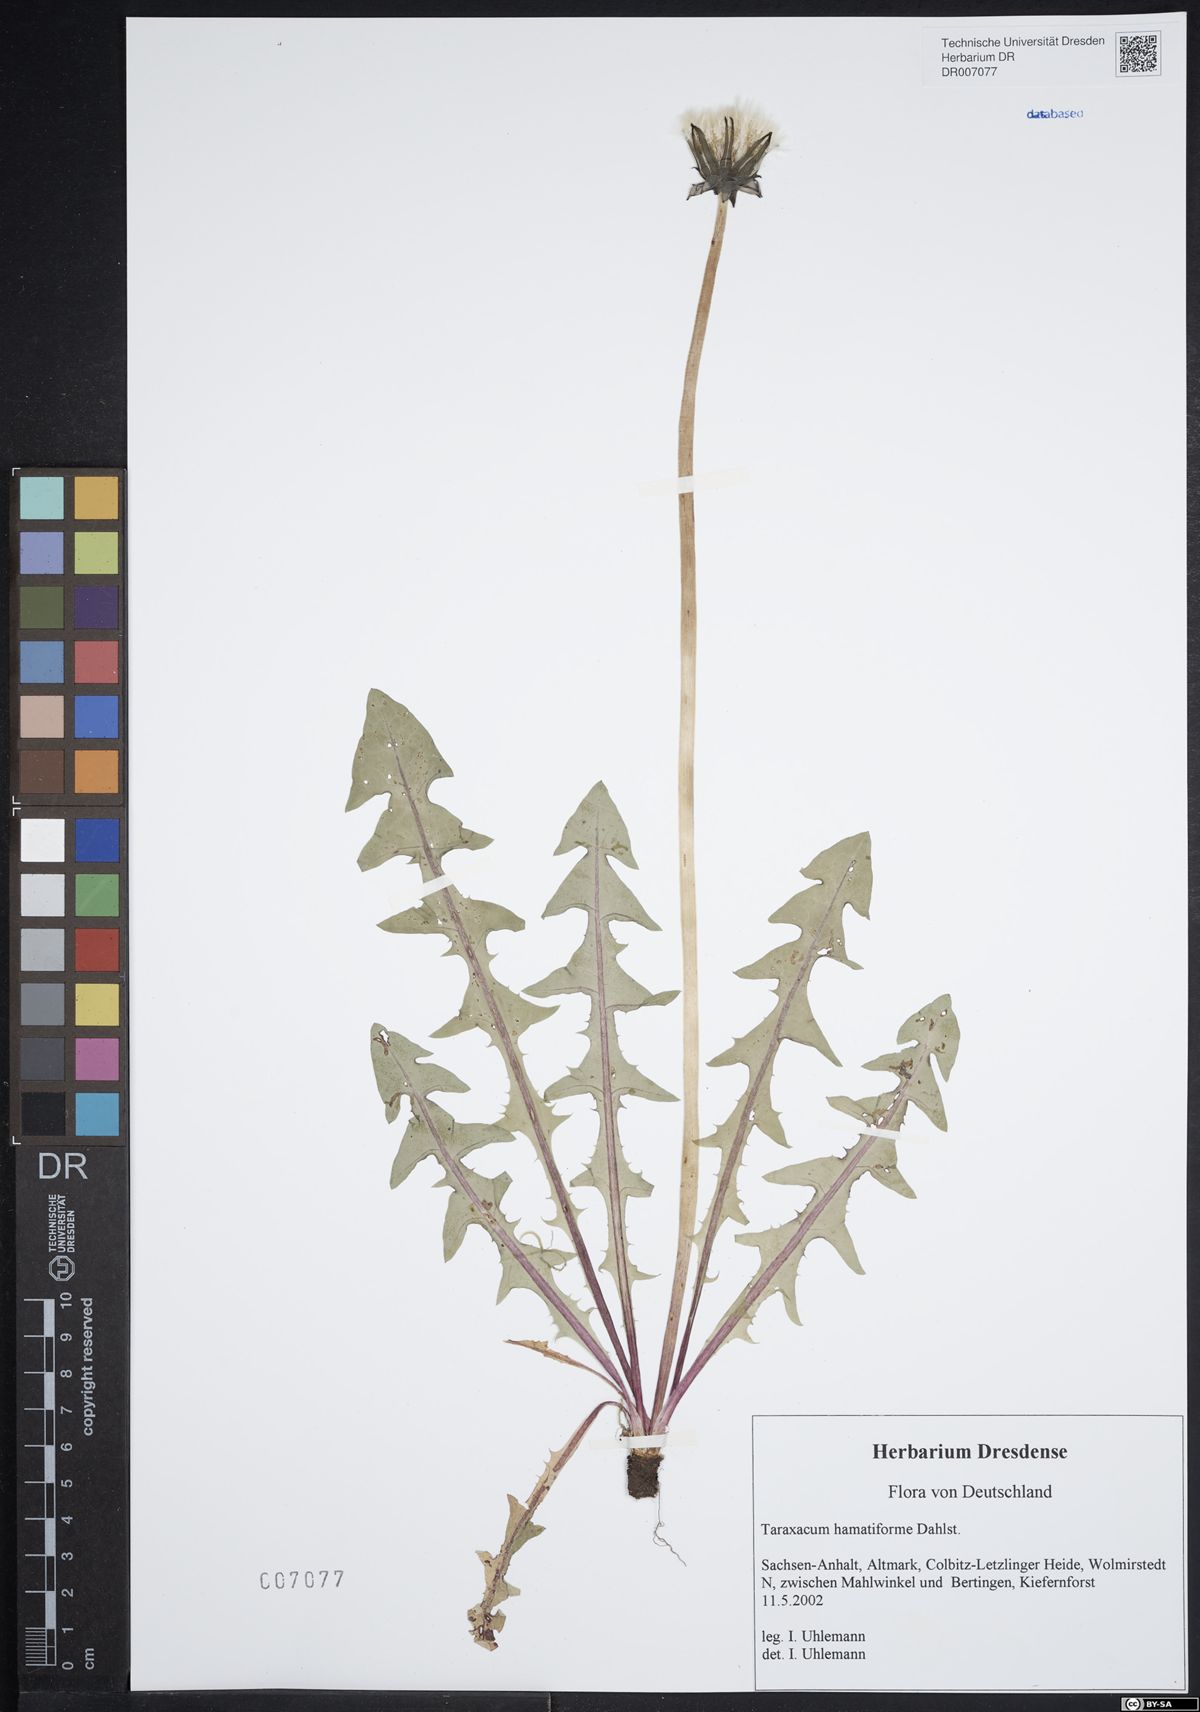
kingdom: Plantae
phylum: Tracheophyta
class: Magnoliopsida
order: Asterales
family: Asteraceae
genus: Taraxacum
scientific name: Taraxacum hamatiforme
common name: Asymmetrical hook-lobed dandelion
